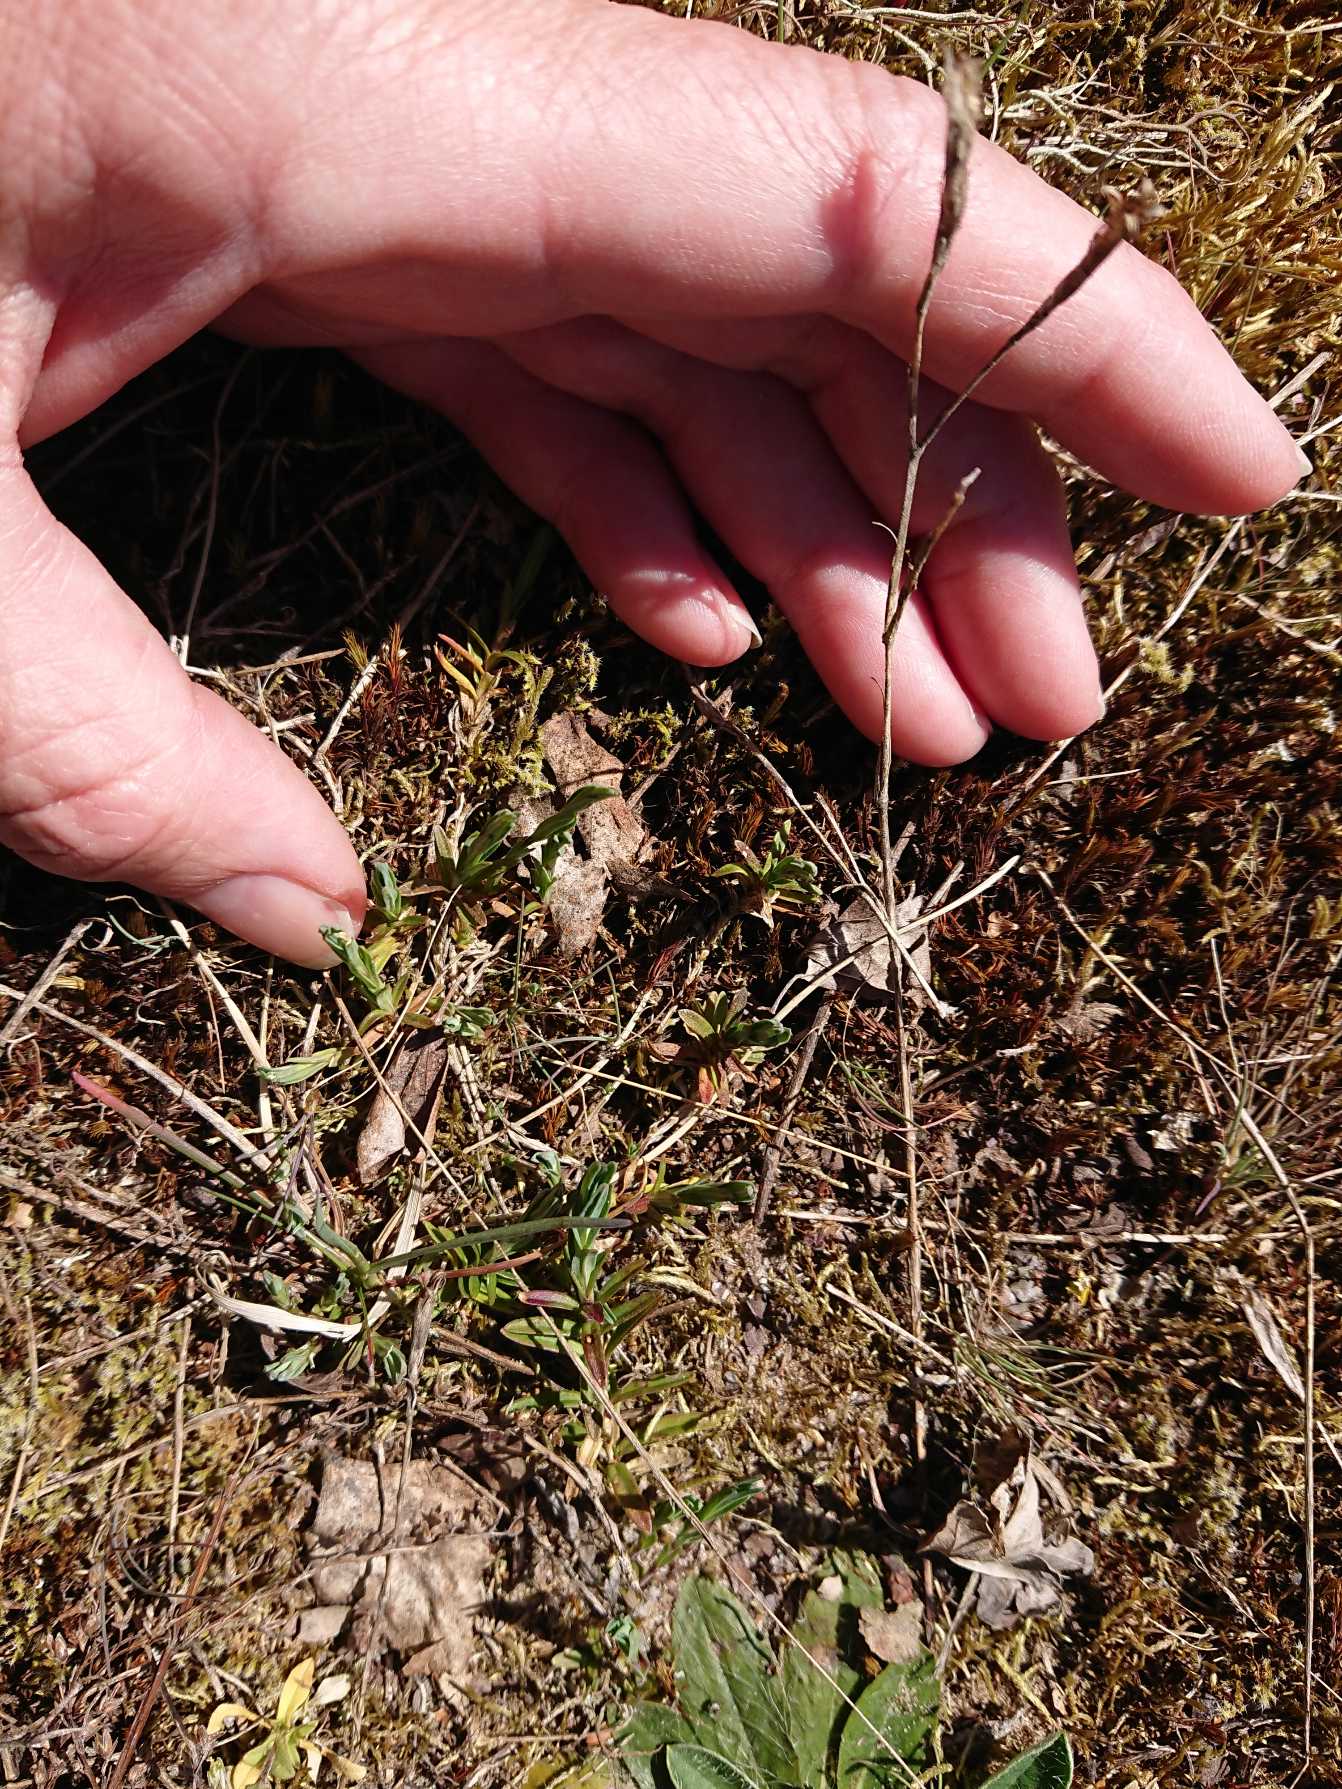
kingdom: Plantae
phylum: Tracheophyta
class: Magnoliopsida
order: Caryophyllales
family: Caryophyllaceae
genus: Dianthus
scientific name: Dianthus deltoides
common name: Bakke-nellike
